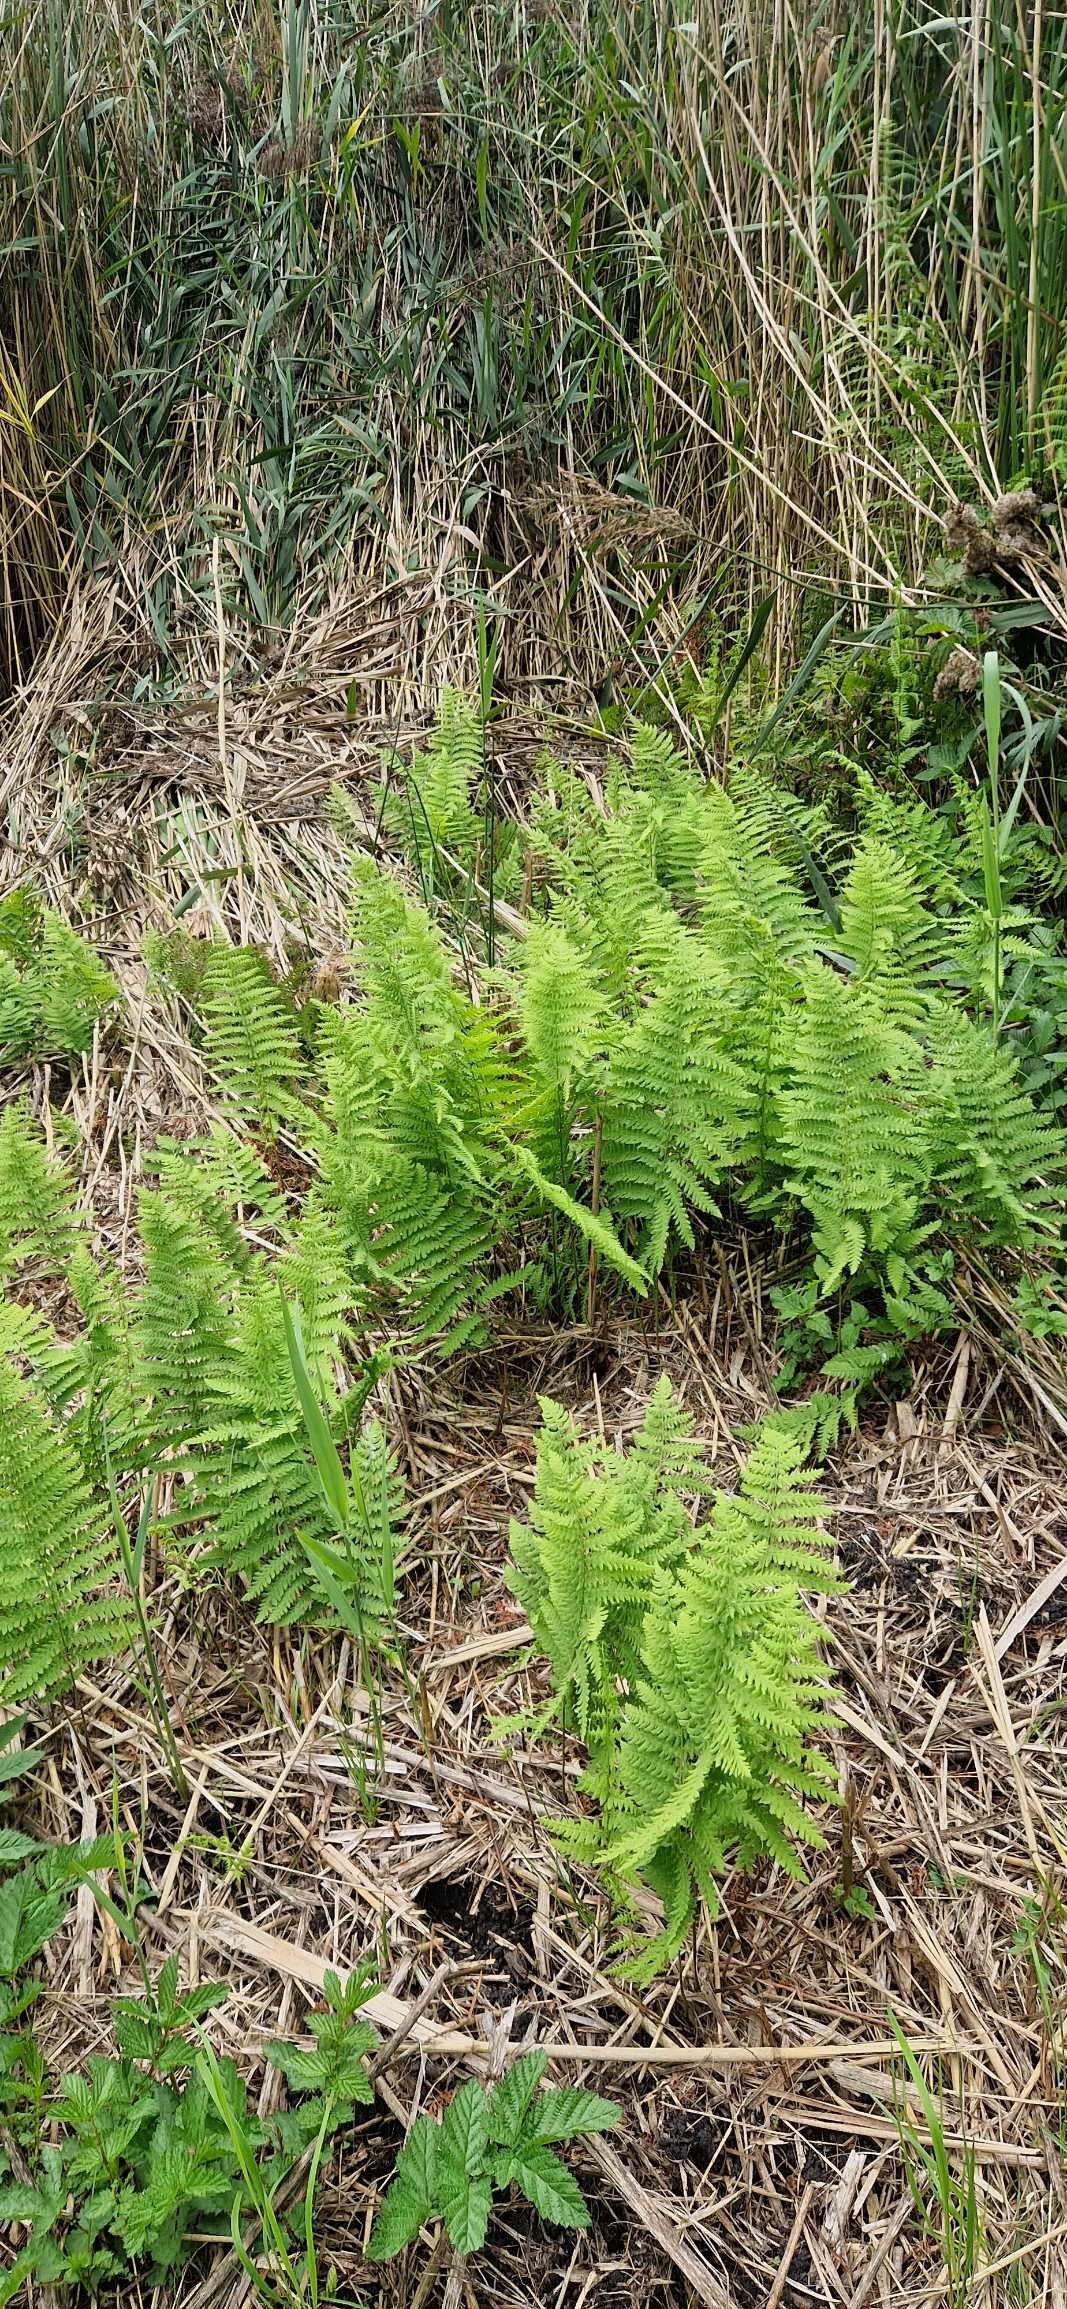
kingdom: Plantae
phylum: Tracheophyta
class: Polypodiopsida
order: Polypodiales
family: Thelypteridaceae
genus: Thelypteris
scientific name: Thelypteris palustris
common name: Kærmangeløv
